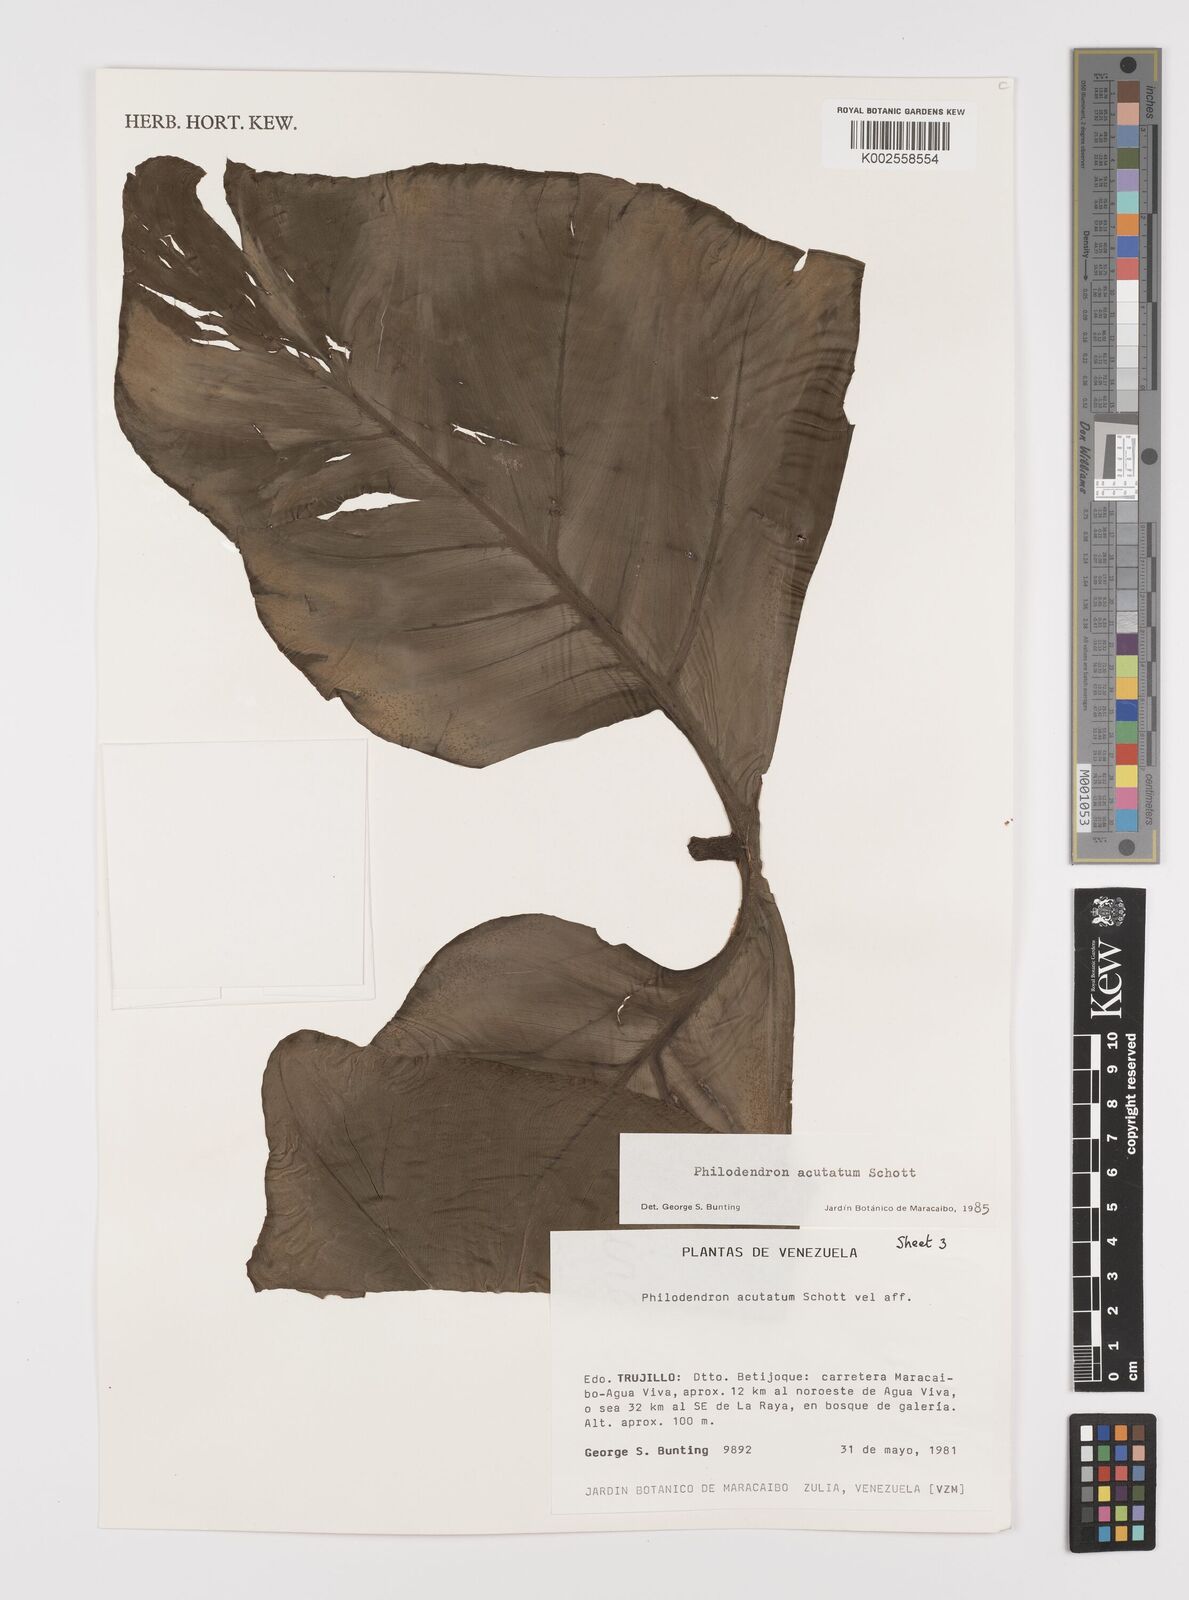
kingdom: Plantae
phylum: Tracheophyta
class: Liliopsida
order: Alismatales
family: Araceae
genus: Philodendron
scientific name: Philodendron quinquenervium
